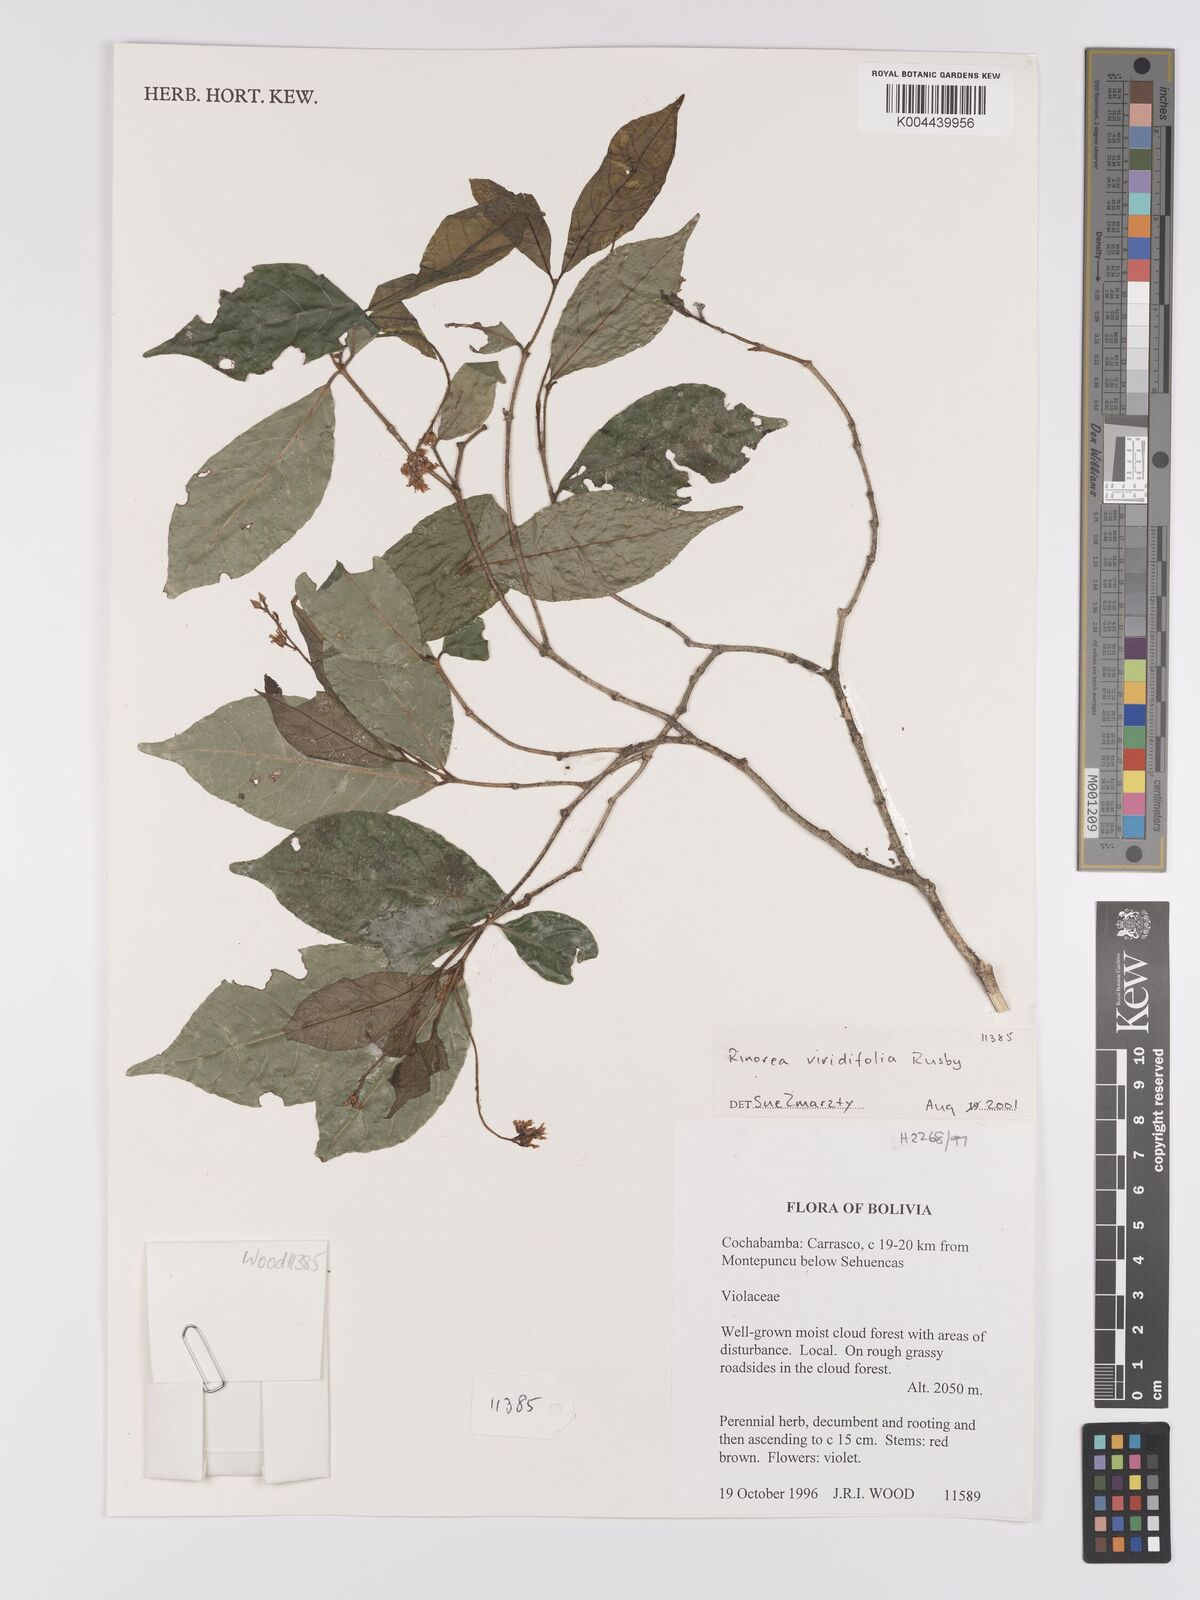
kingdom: Plantae
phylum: Tracheophyta
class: Magnoliopsida
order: Malpighiales
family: Violaceae
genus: Rinorea
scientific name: Rinorea viridifolia
